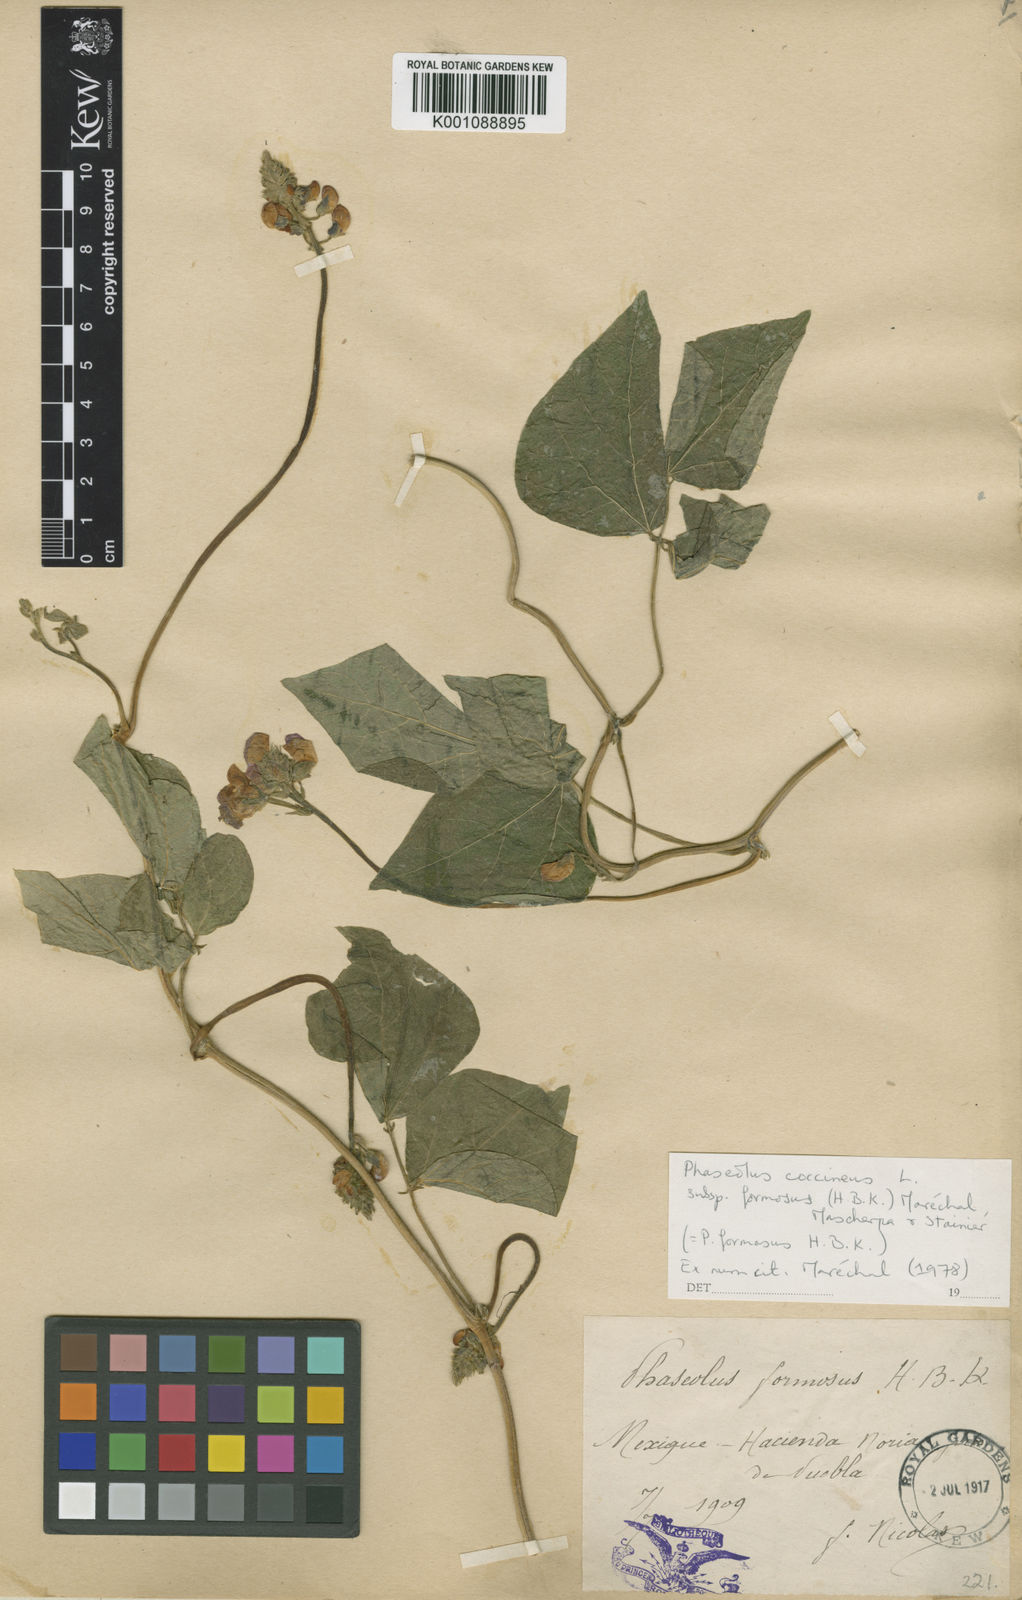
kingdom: Plantae
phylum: Tracheophyta
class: Magnoliopsida
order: Fabales
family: Fabaceae
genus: Phaseolus
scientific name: Phaseolus coccineus
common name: Runner bean
